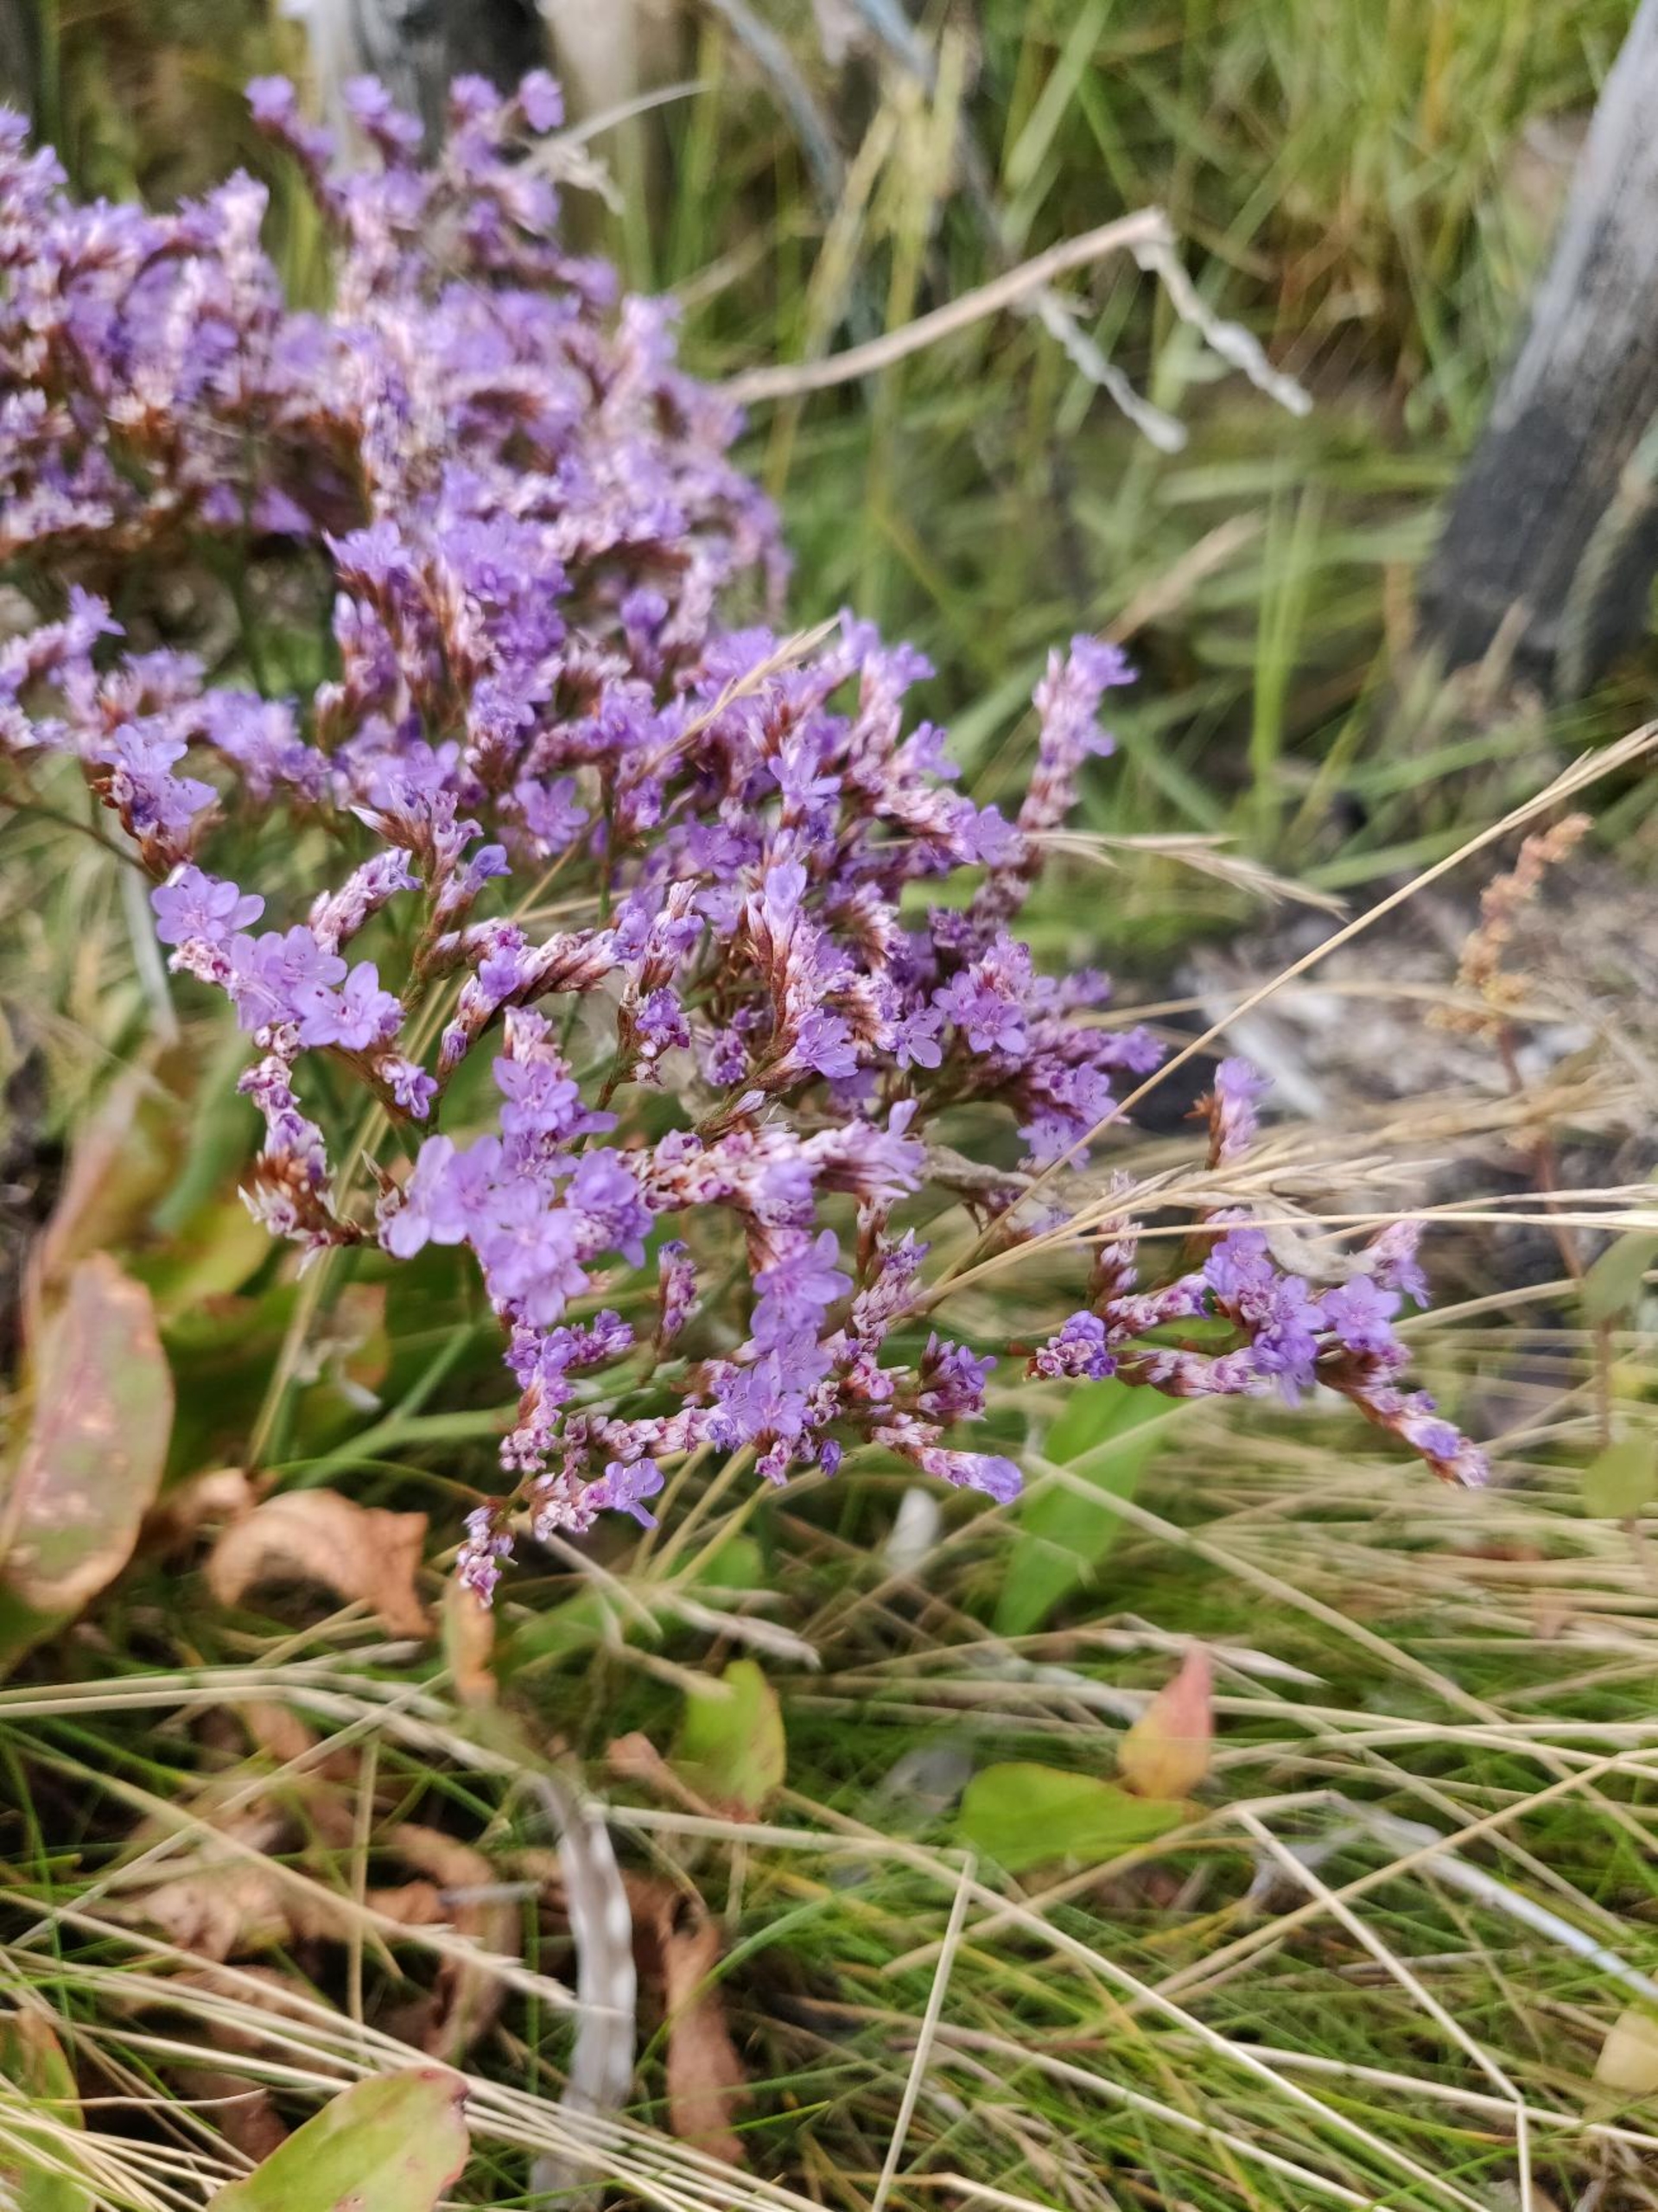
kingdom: Plantae
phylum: Tracheophyta
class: Magnoliopsida
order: Caryophyllales
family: Plumbaginaceae
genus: Limonium
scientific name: Limonium vulgare
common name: Tætblomstret hindebæger
